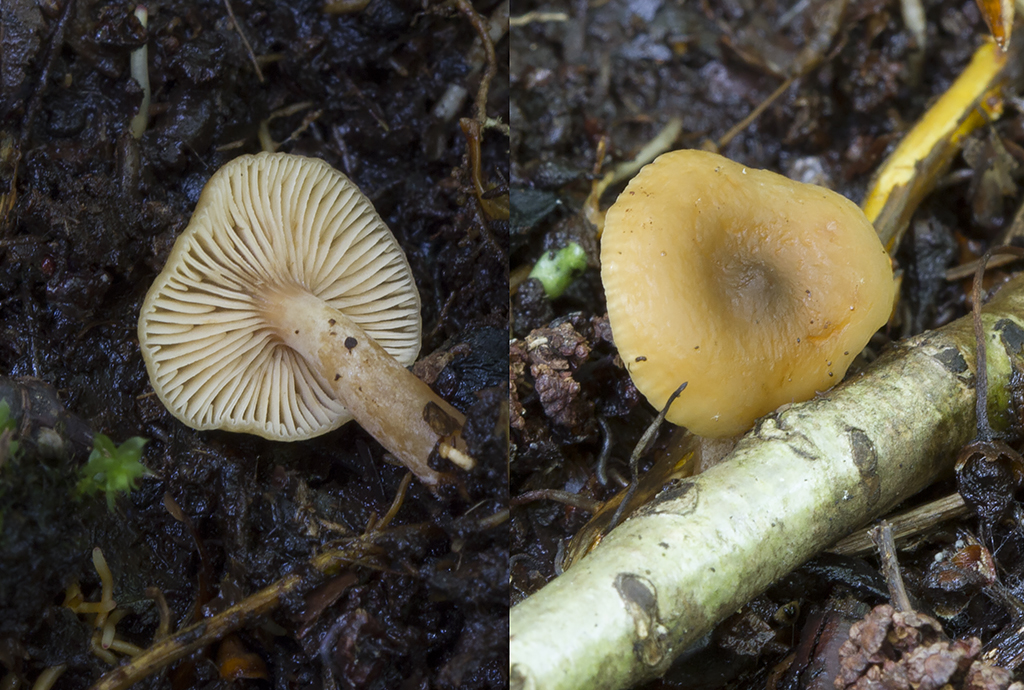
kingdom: Fungi
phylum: Basidiomycota
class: Agaricomycetes
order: Russulales
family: Russulaceae
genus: Lactarius
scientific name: Lactarius cyathuliformis
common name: mørkøjet mælkehat
